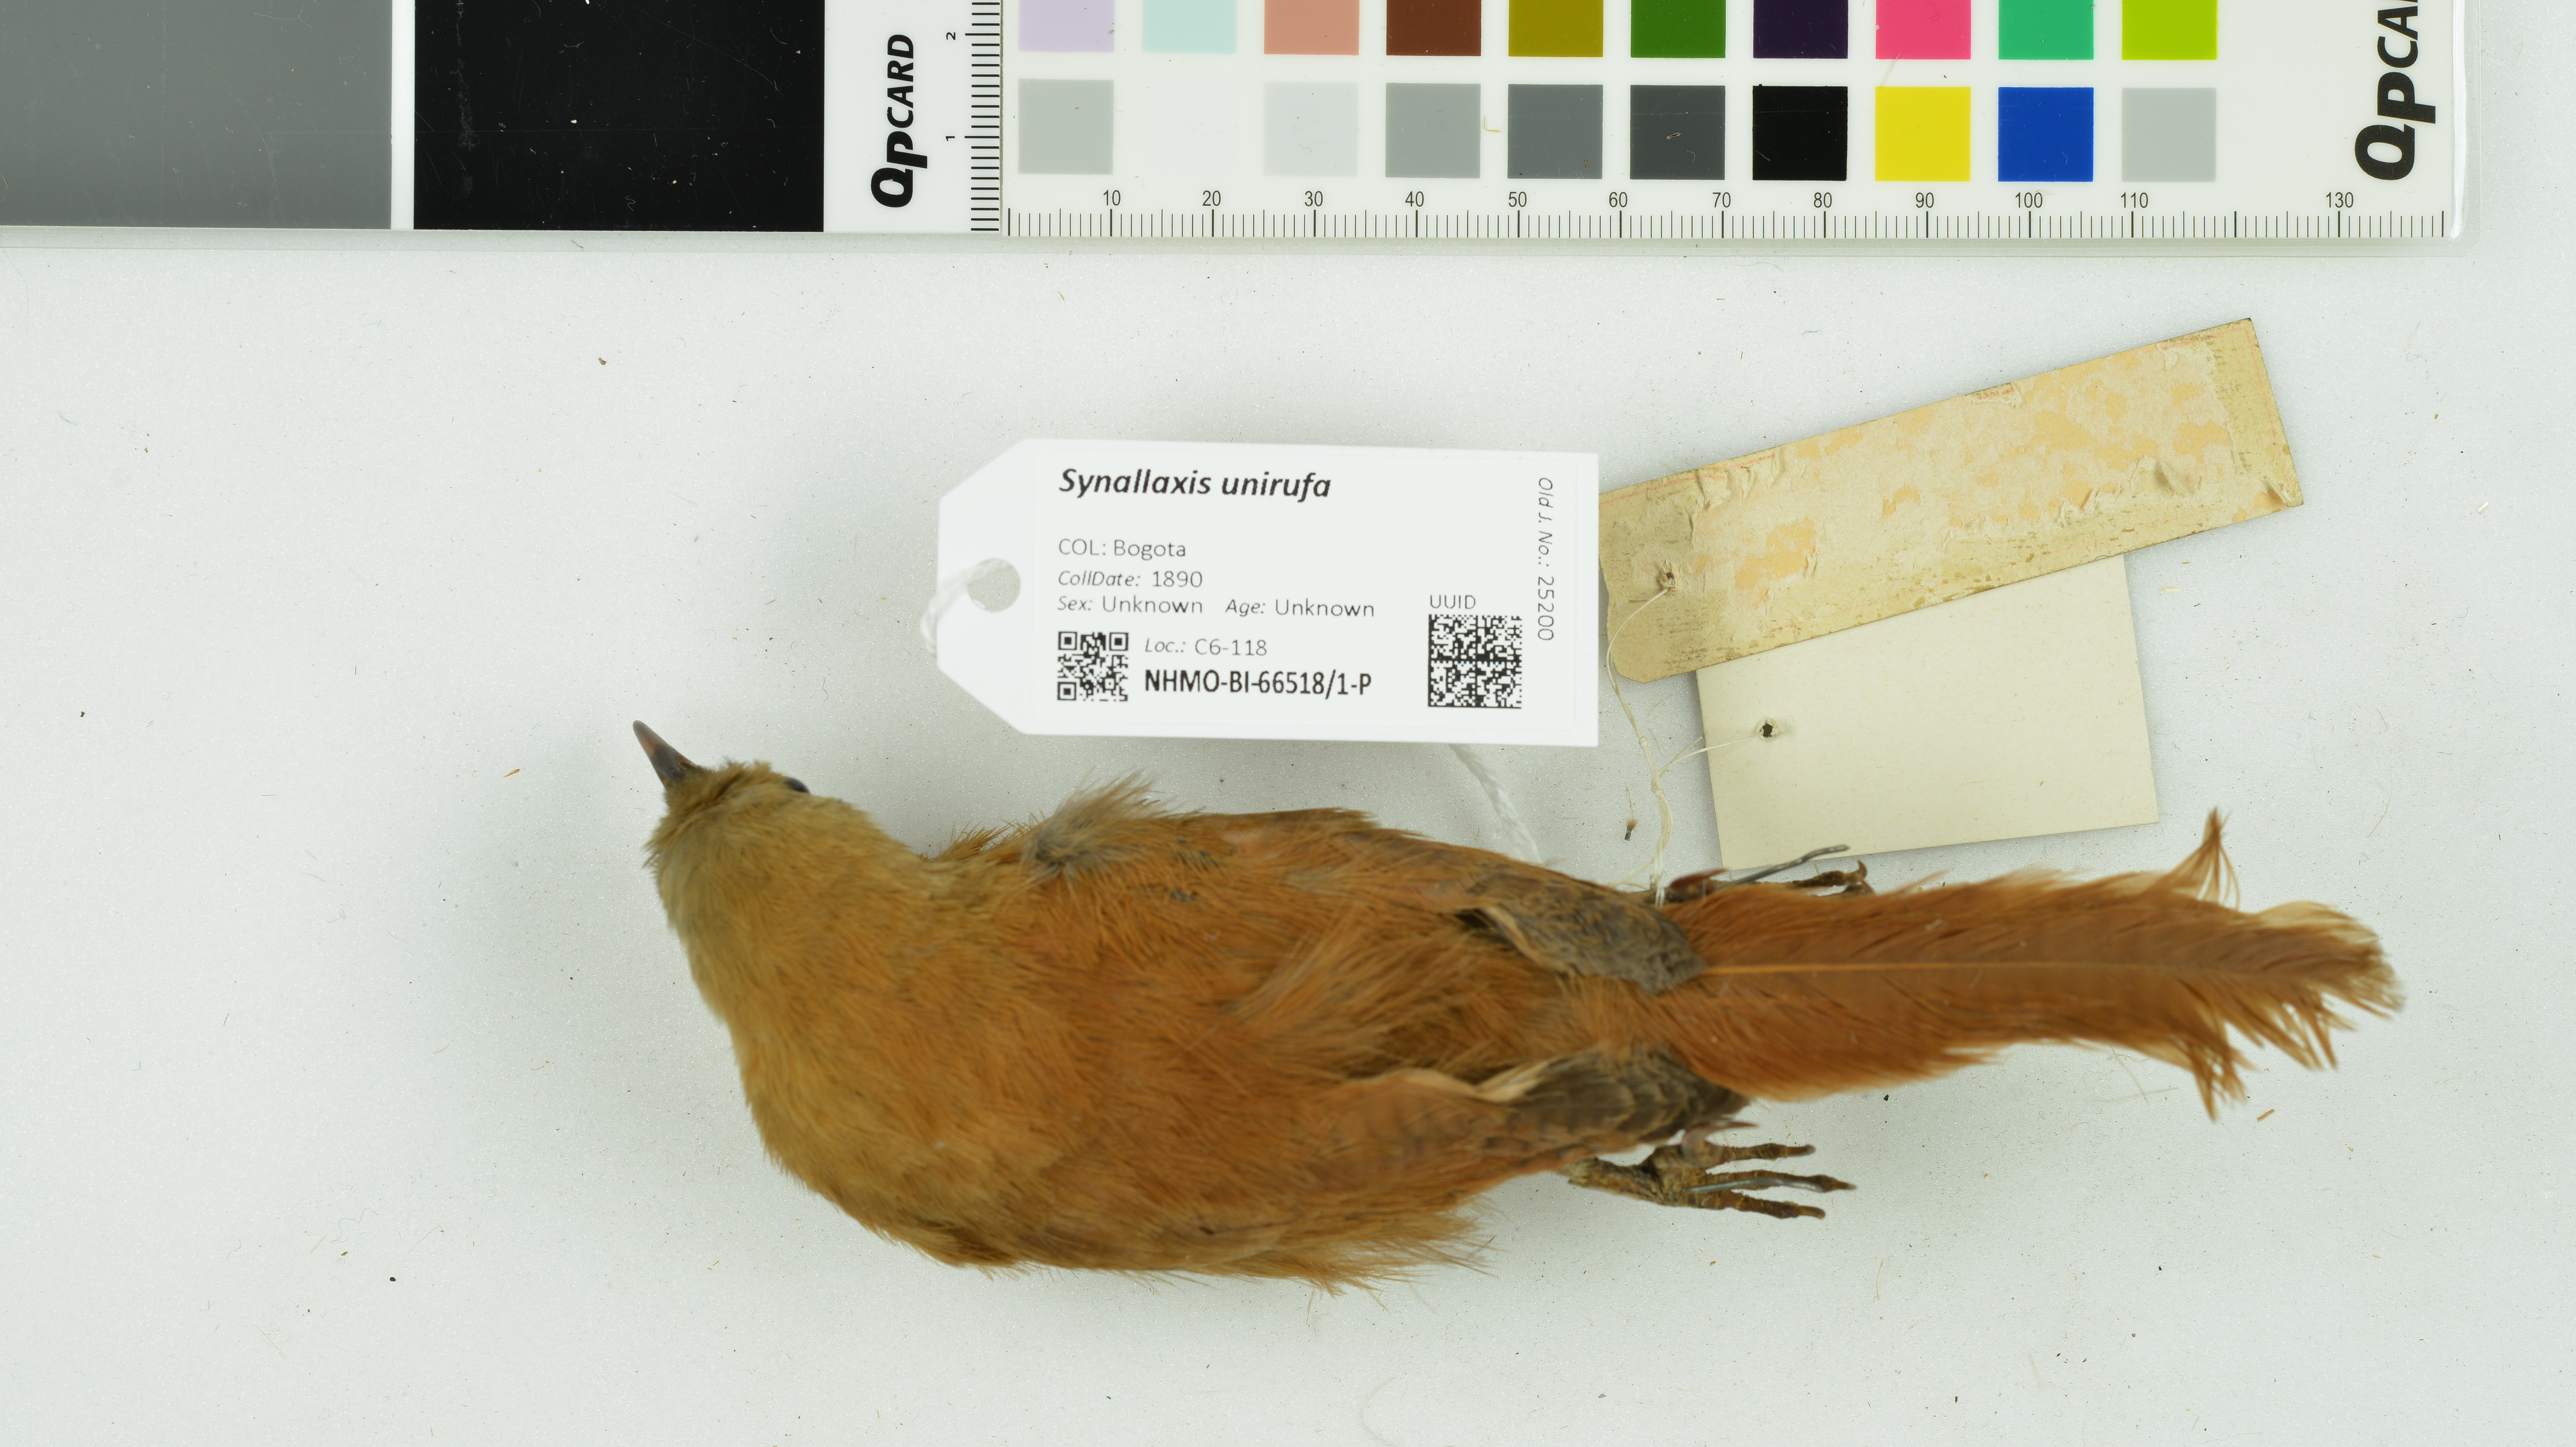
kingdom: Animalia
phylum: Chordata
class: Aves
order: Passeriformes
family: Furnariidae
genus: Synallaxis
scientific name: Synallaxis unirufa
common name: Rufous spinetail
